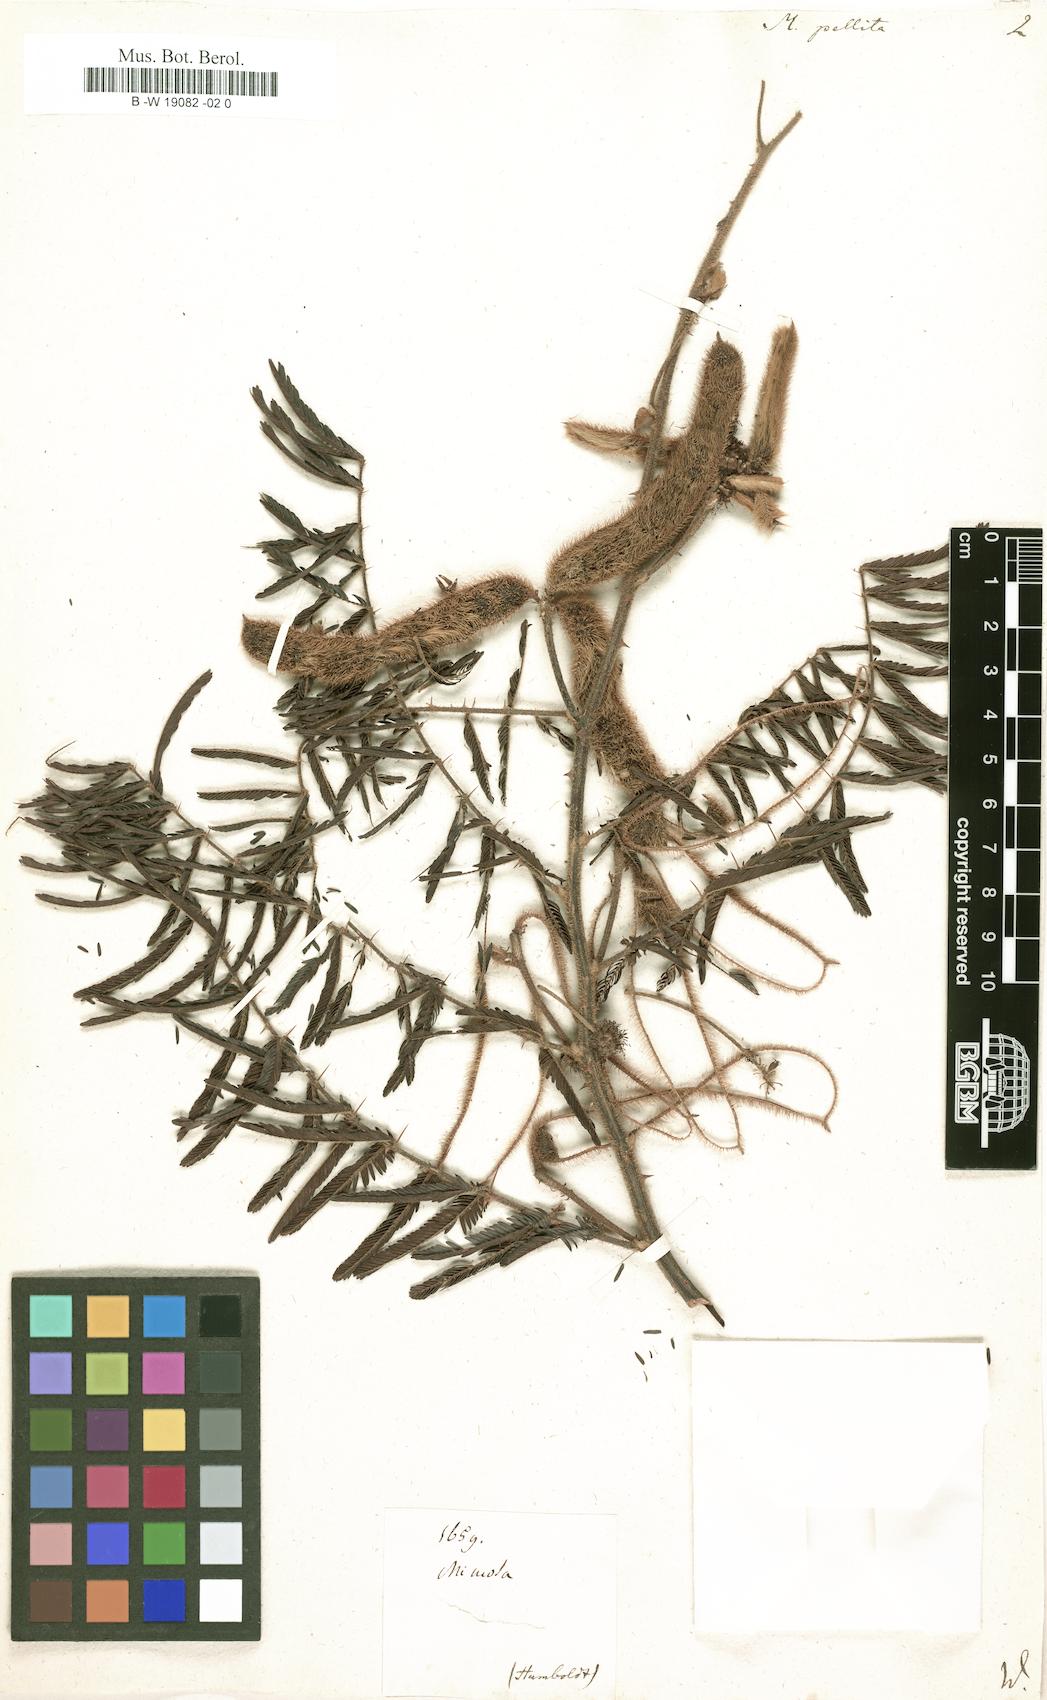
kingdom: Plantae
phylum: Tracheophyta
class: Magnoliopsida
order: Fabales
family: Fabaceae
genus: Mimosa
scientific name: Mimosa pigra
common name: Black mimosa
